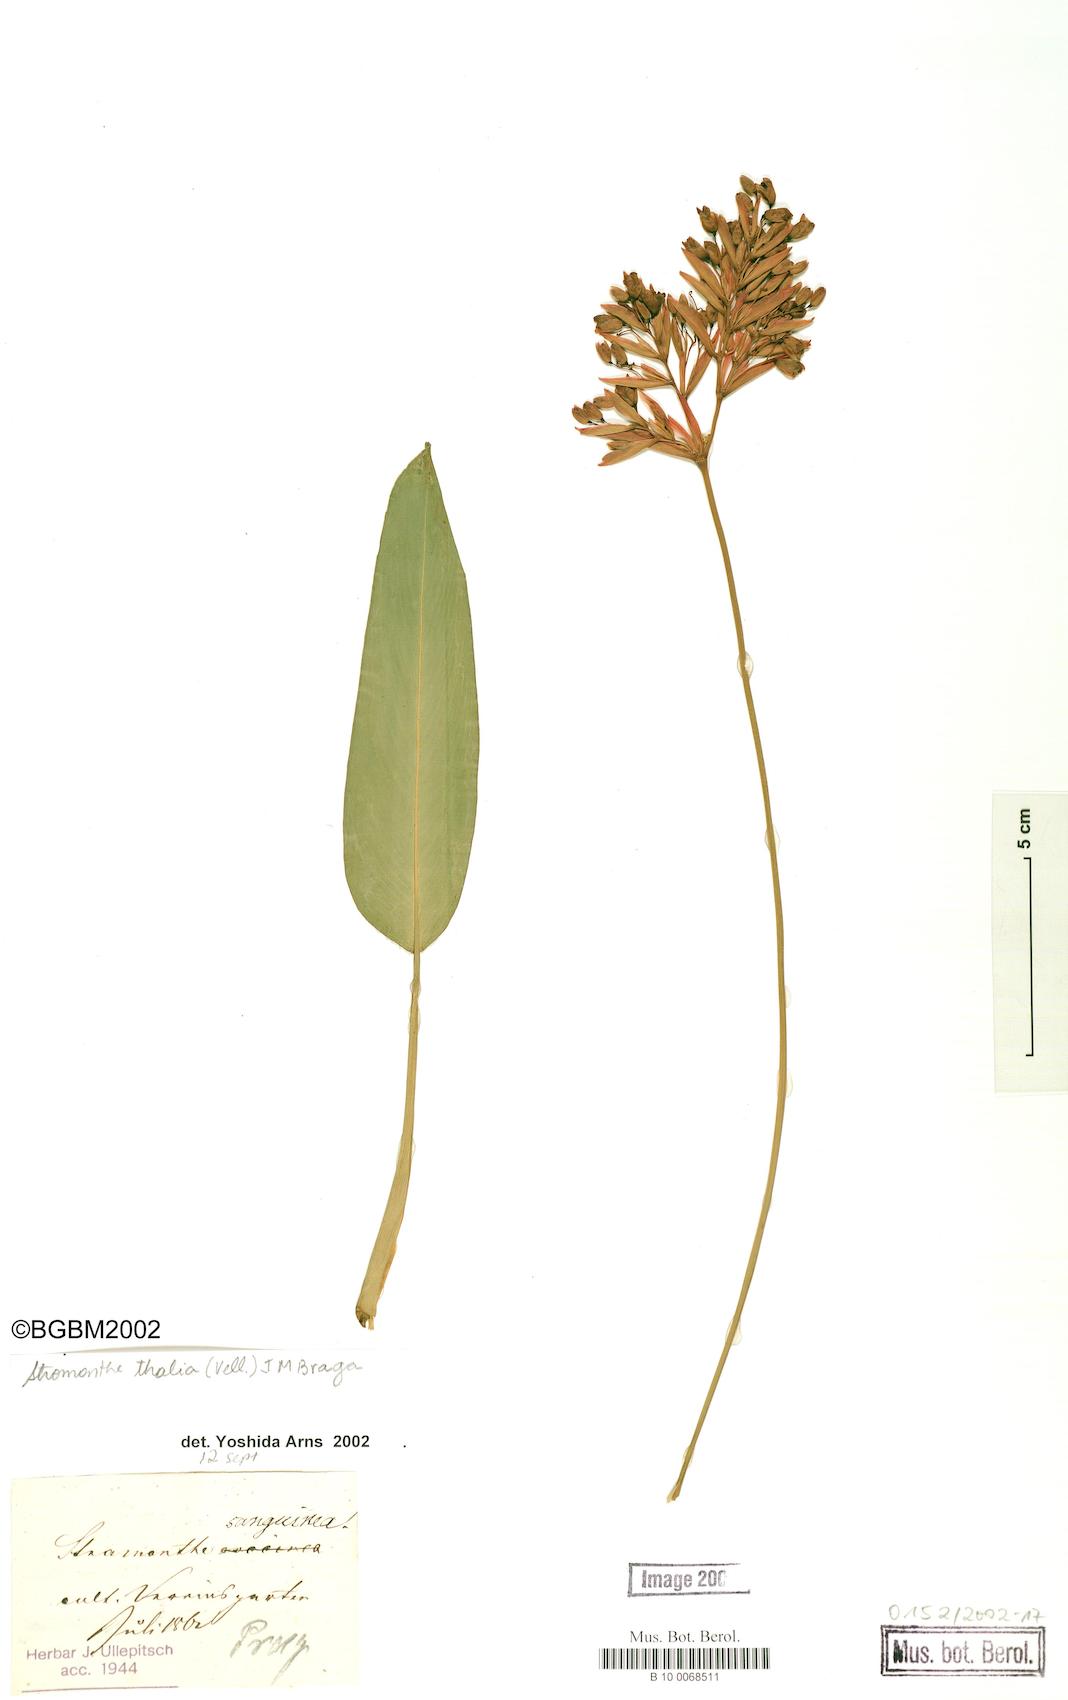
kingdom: Plantae
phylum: Tracheophyta
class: Liliopsida
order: Zingiberales
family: Marantaceae
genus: Stromanthe
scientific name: Stromanthe thalia
